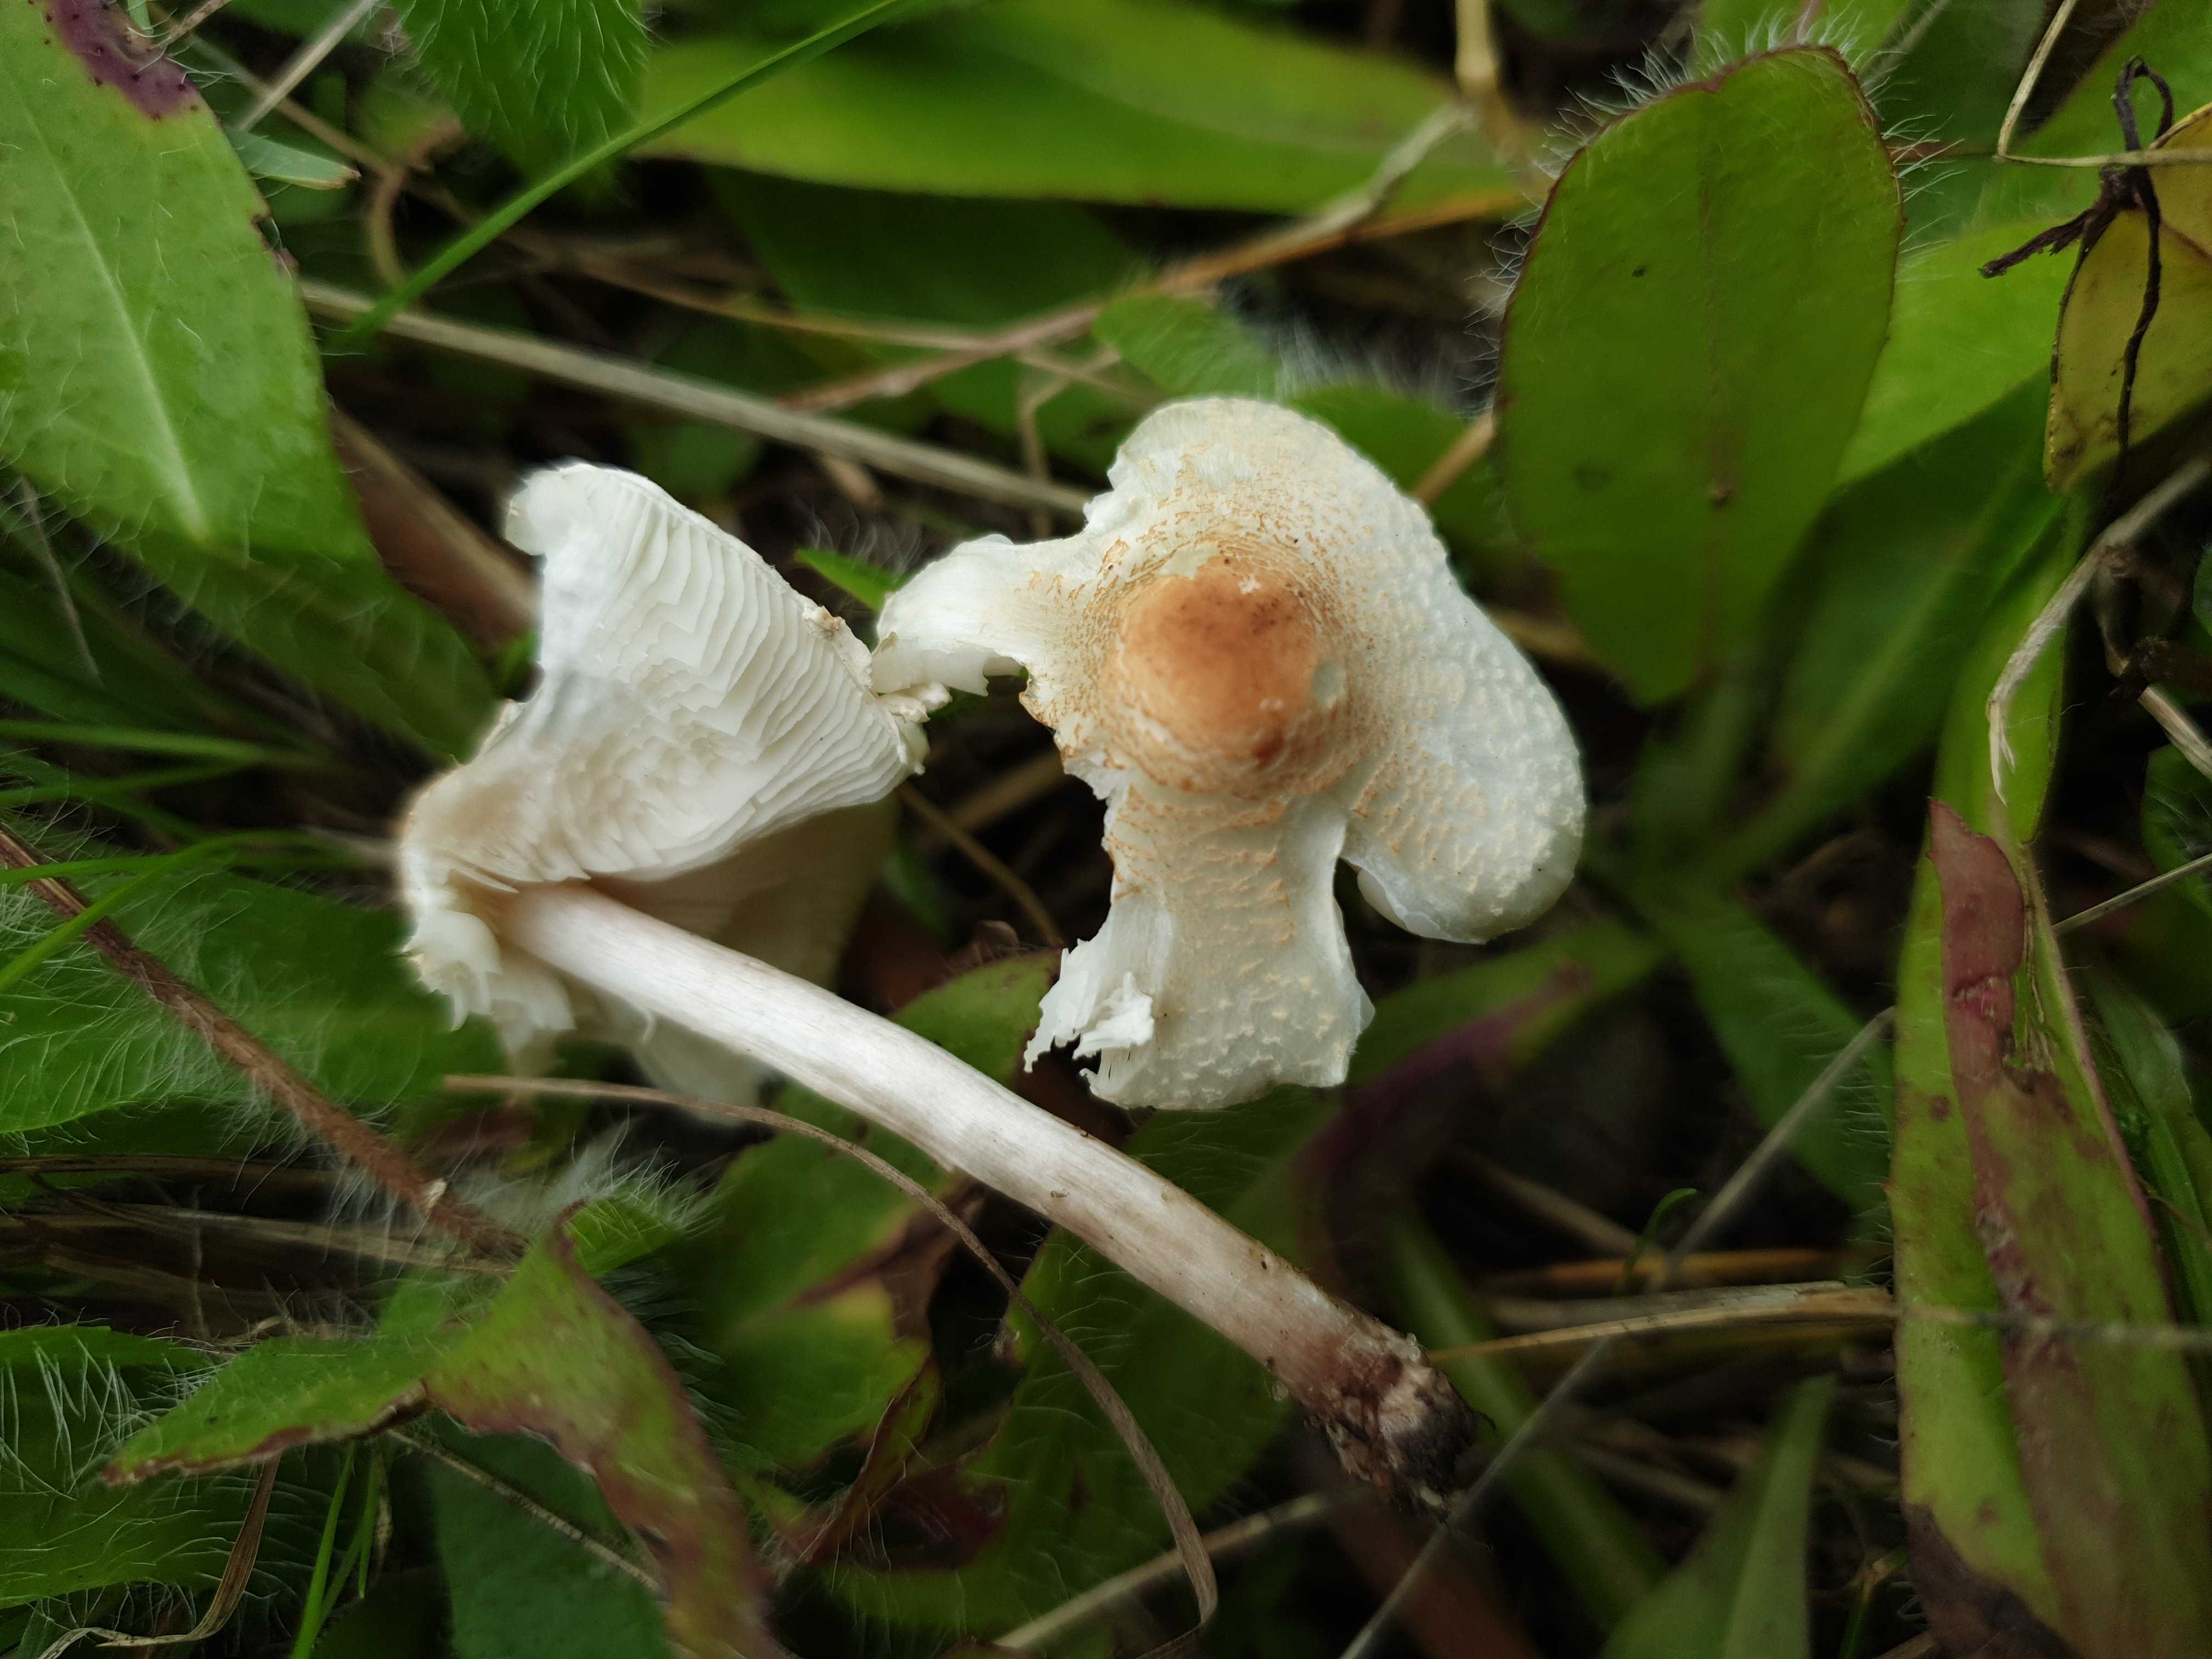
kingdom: Fungi
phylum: Basidiomycota
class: Agaricomycetes
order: Agaricales
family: Agaricaceae
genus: Lepiota
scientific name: Lepiota cristata
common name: stinkende parasolhat
